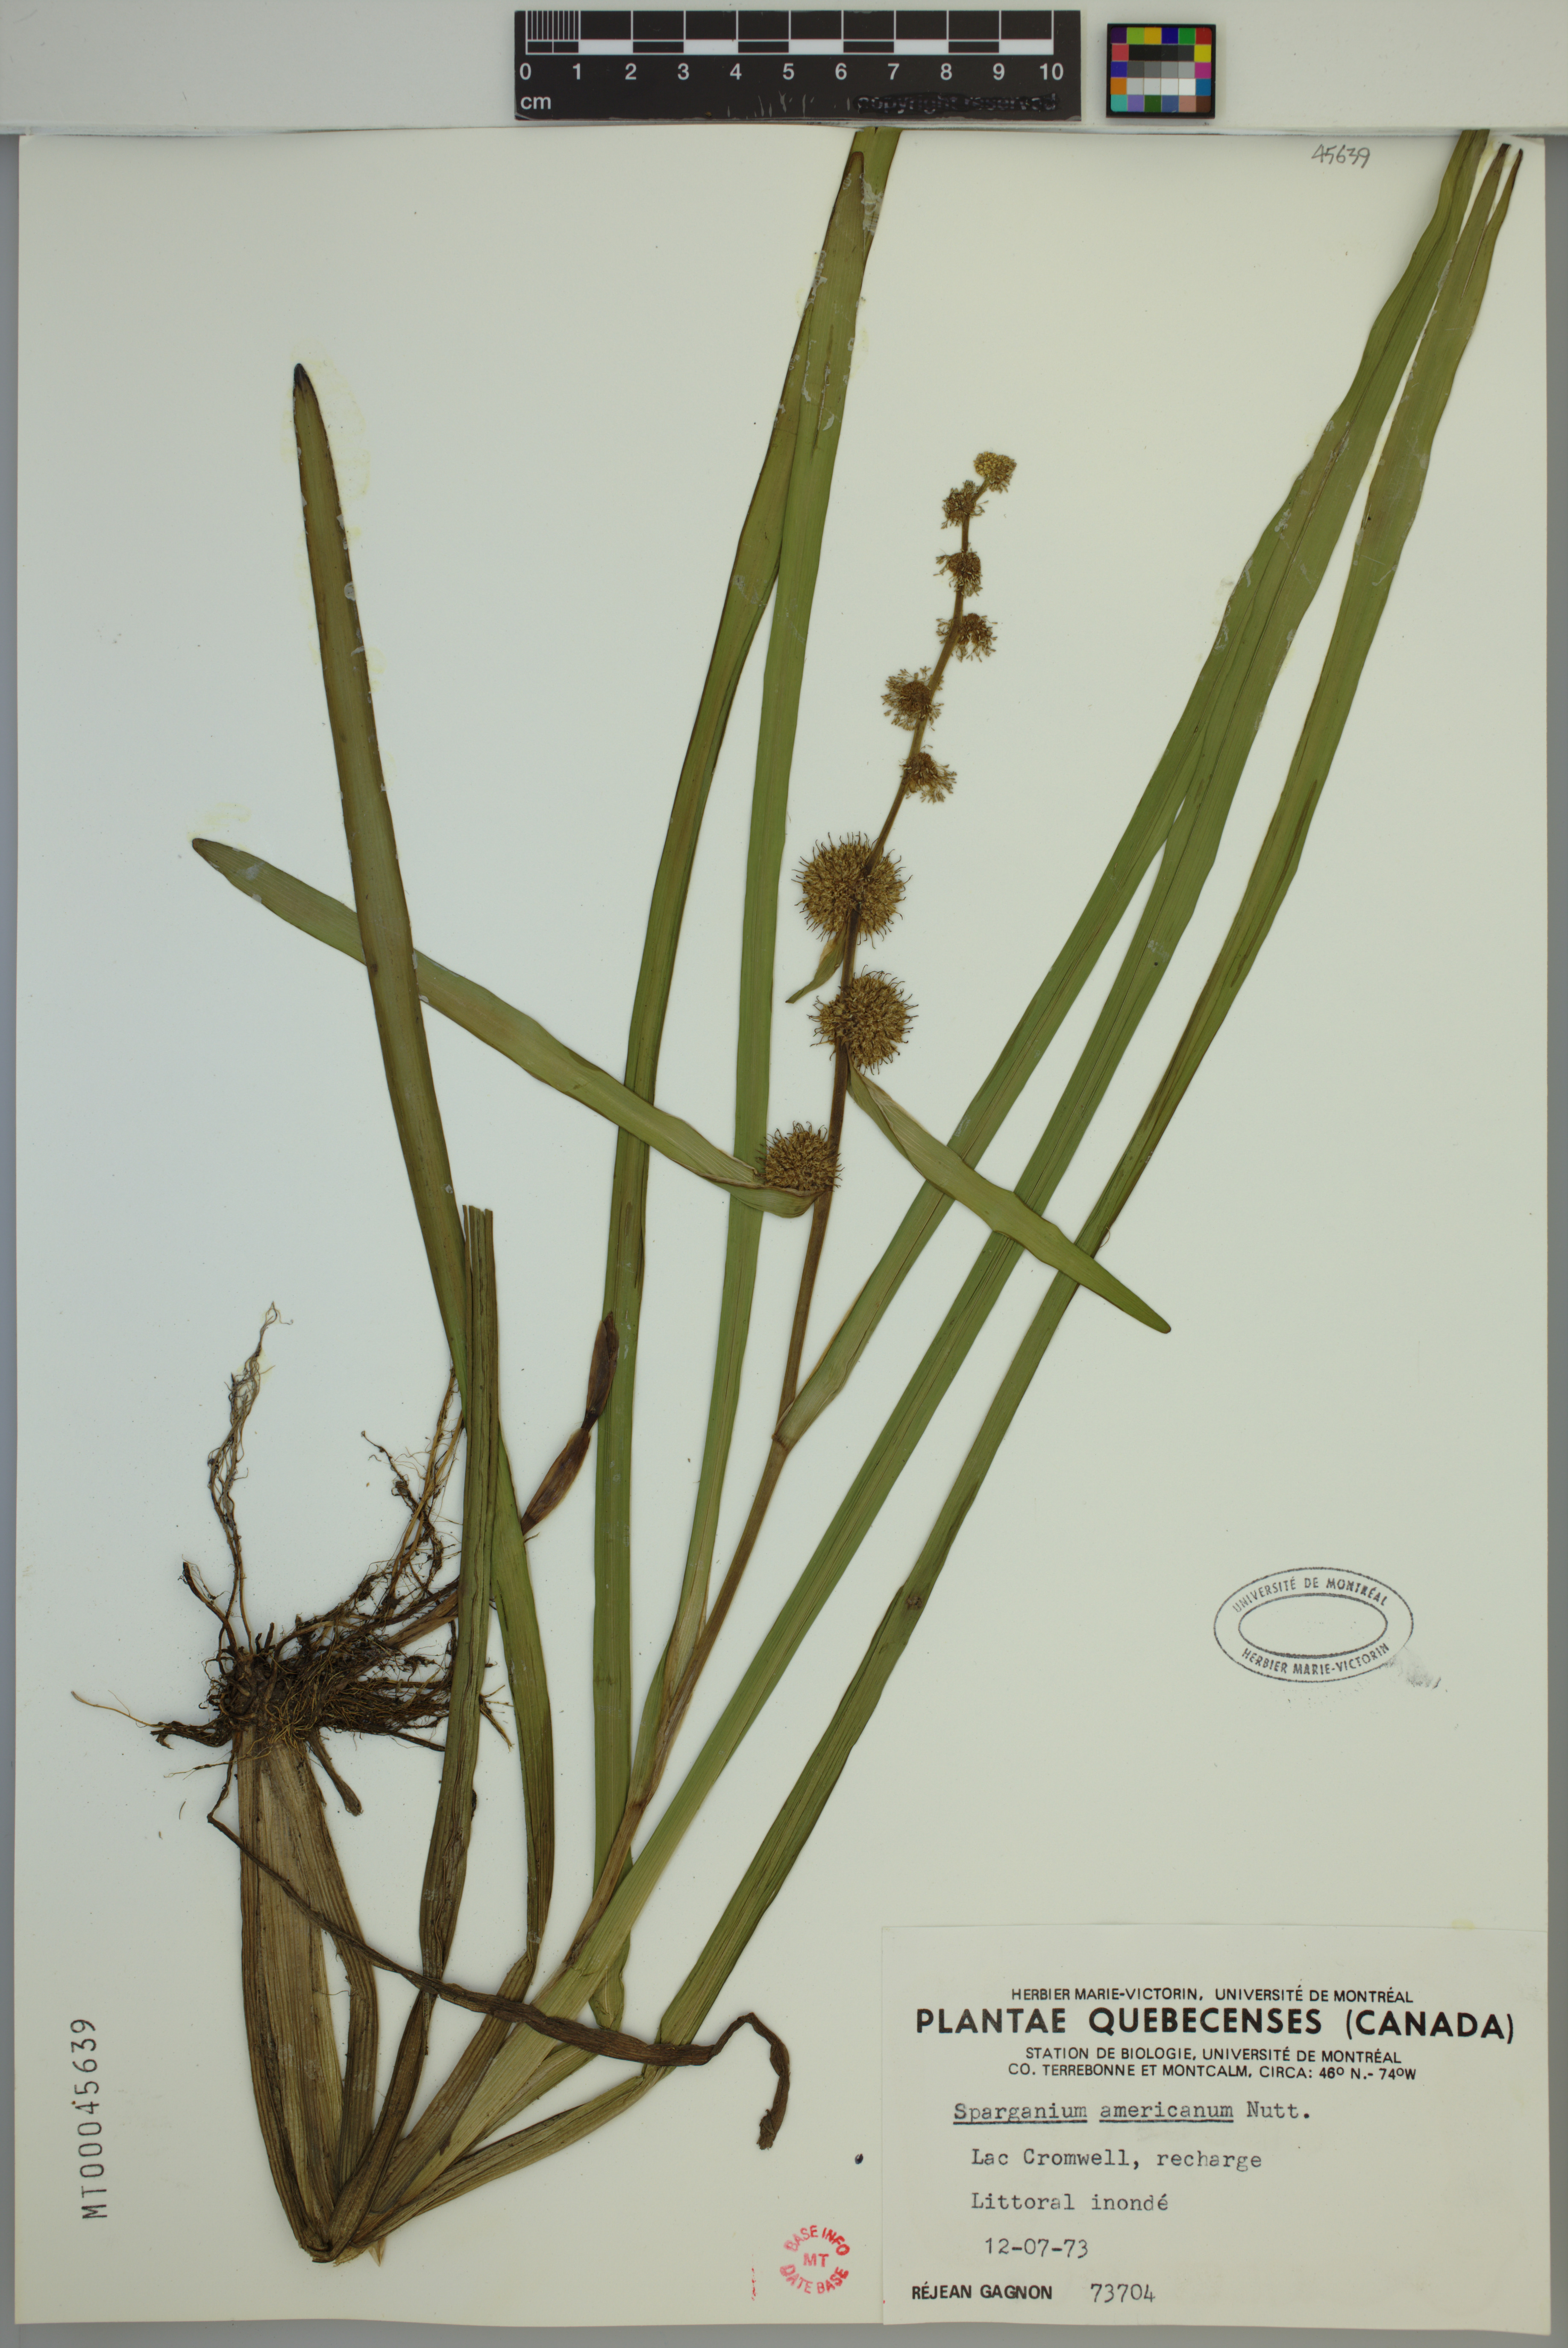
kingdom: Plantae
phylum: Tracheophyta
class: Liliopsida
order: Poales
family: Typhaceae
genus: Sparganium
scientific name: Sparganium americanum
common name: American burreed
